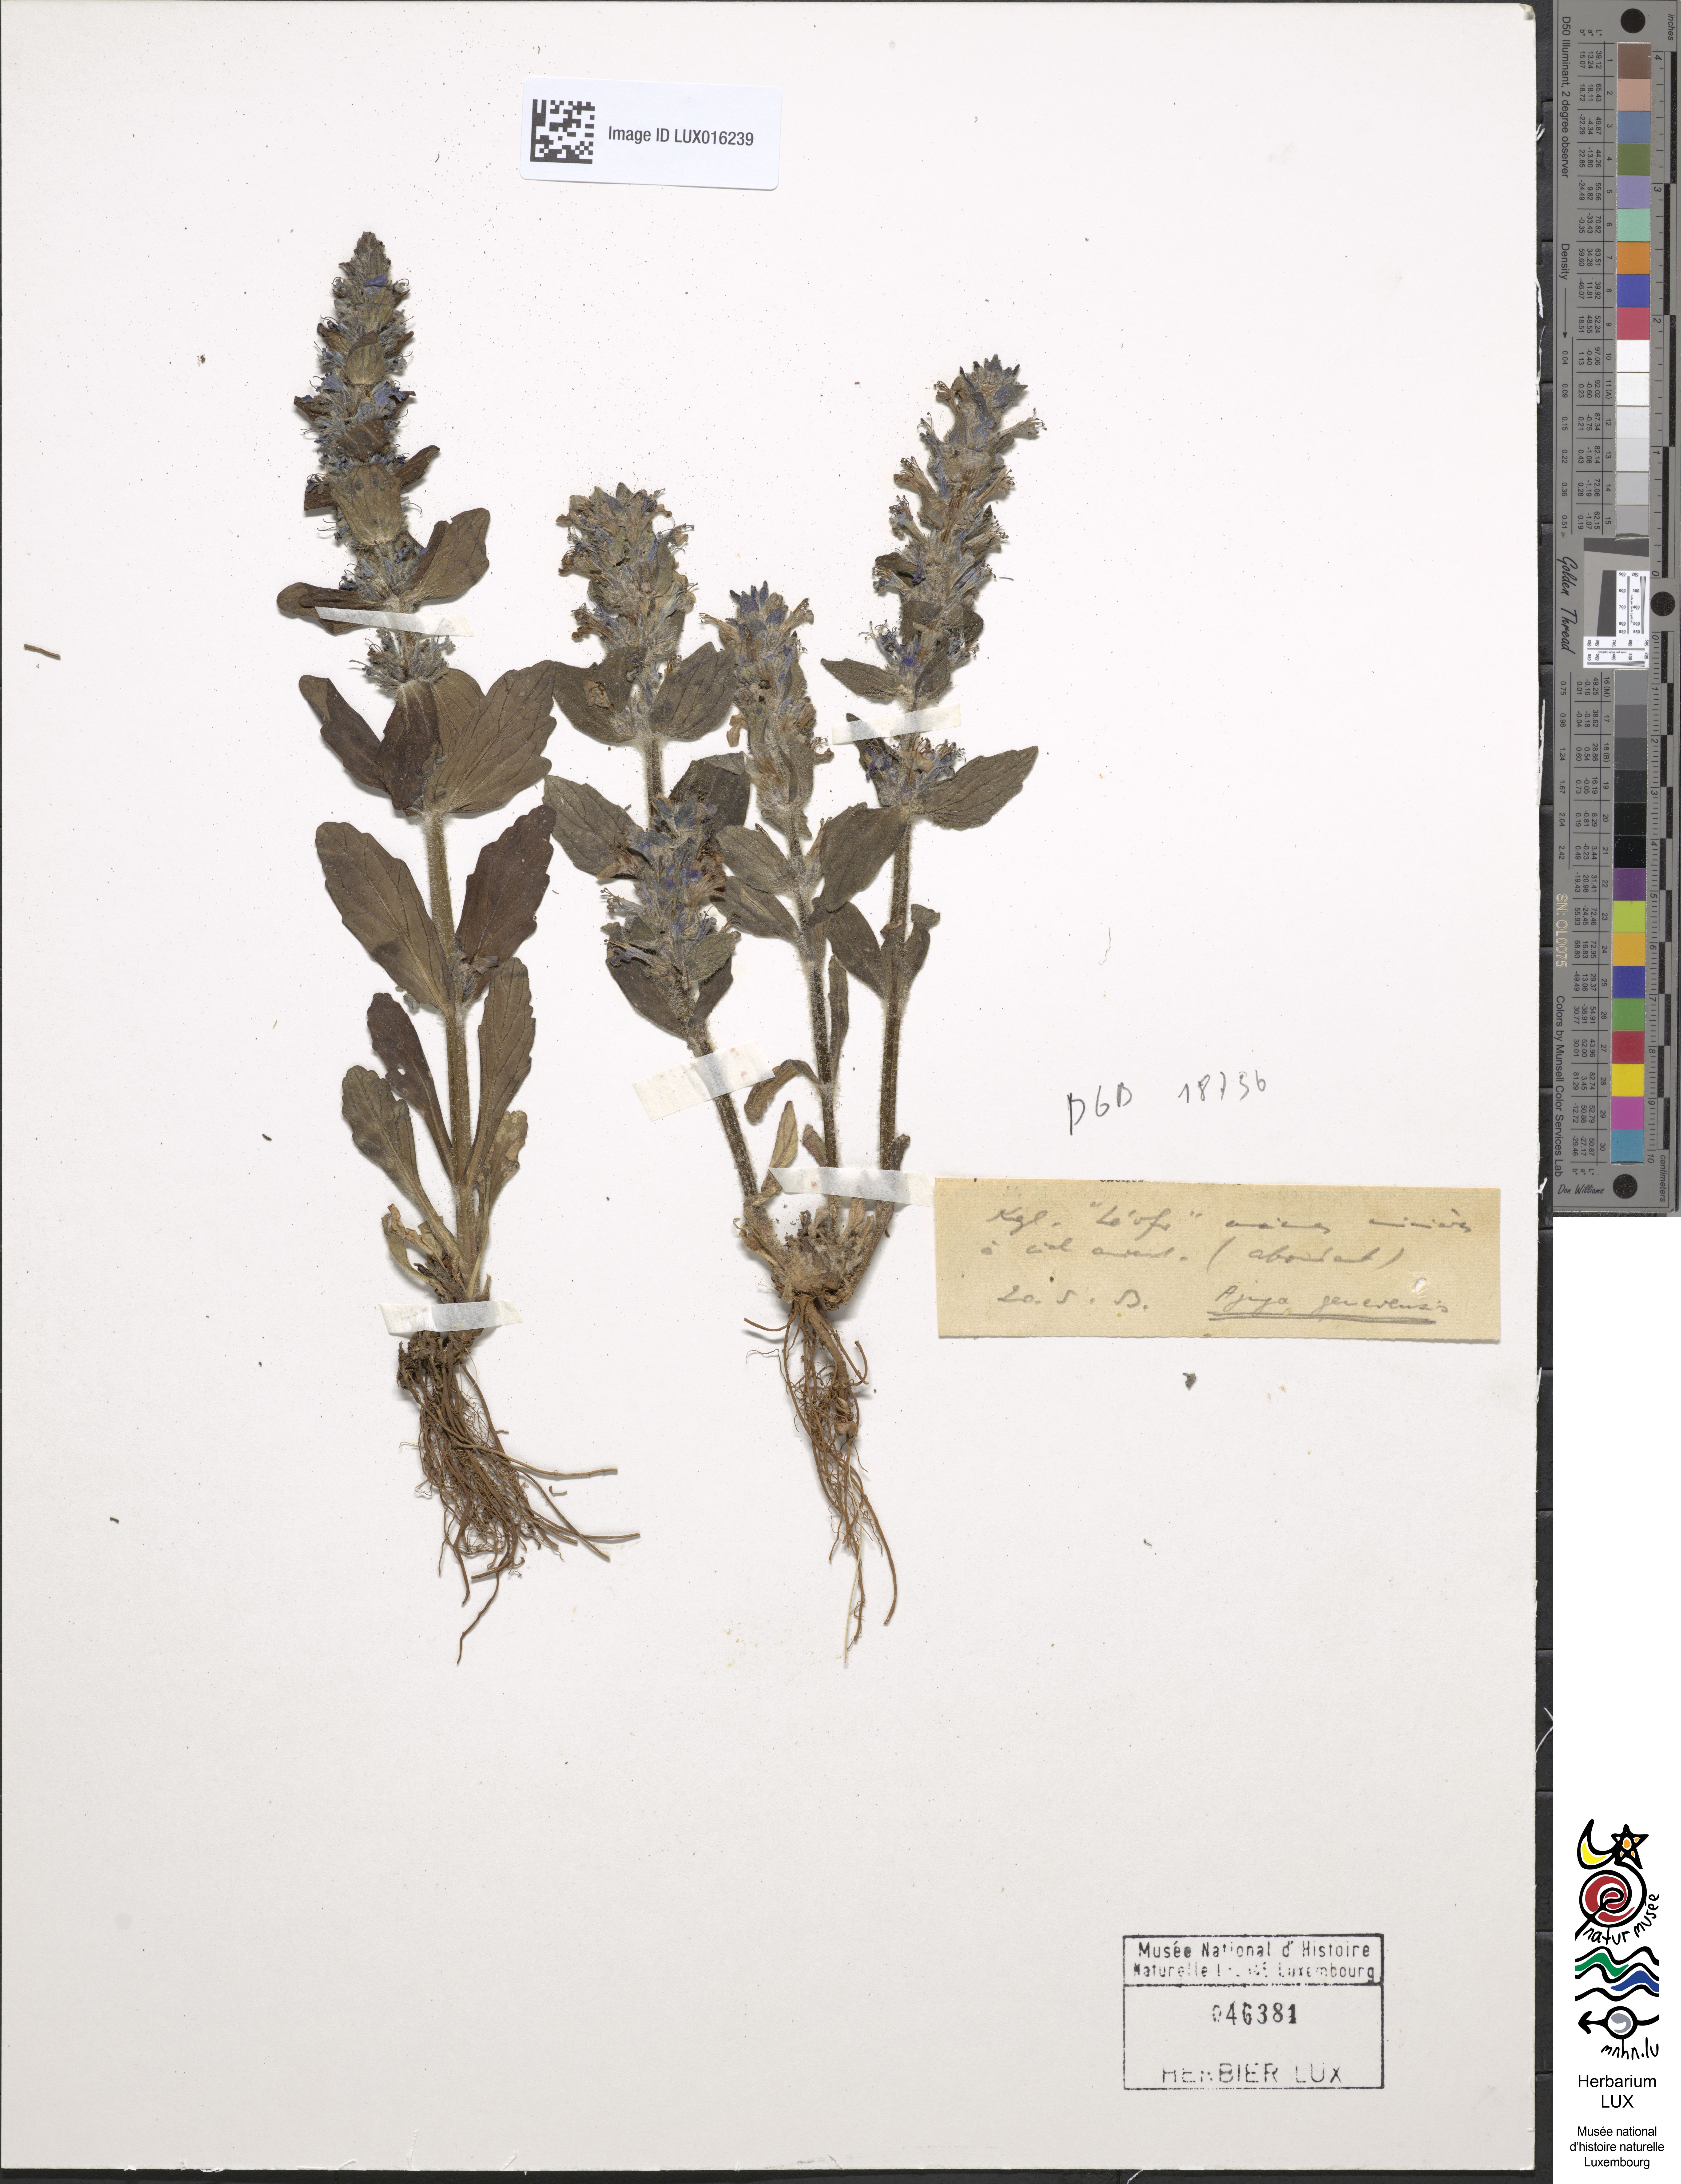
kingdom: Plantae
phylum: Tracheophyta
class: Magnoliopsida
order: Lamiales
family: Lamiaceae
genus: Ajuga
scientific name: Ajuga genevensis
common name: Blue bugle
